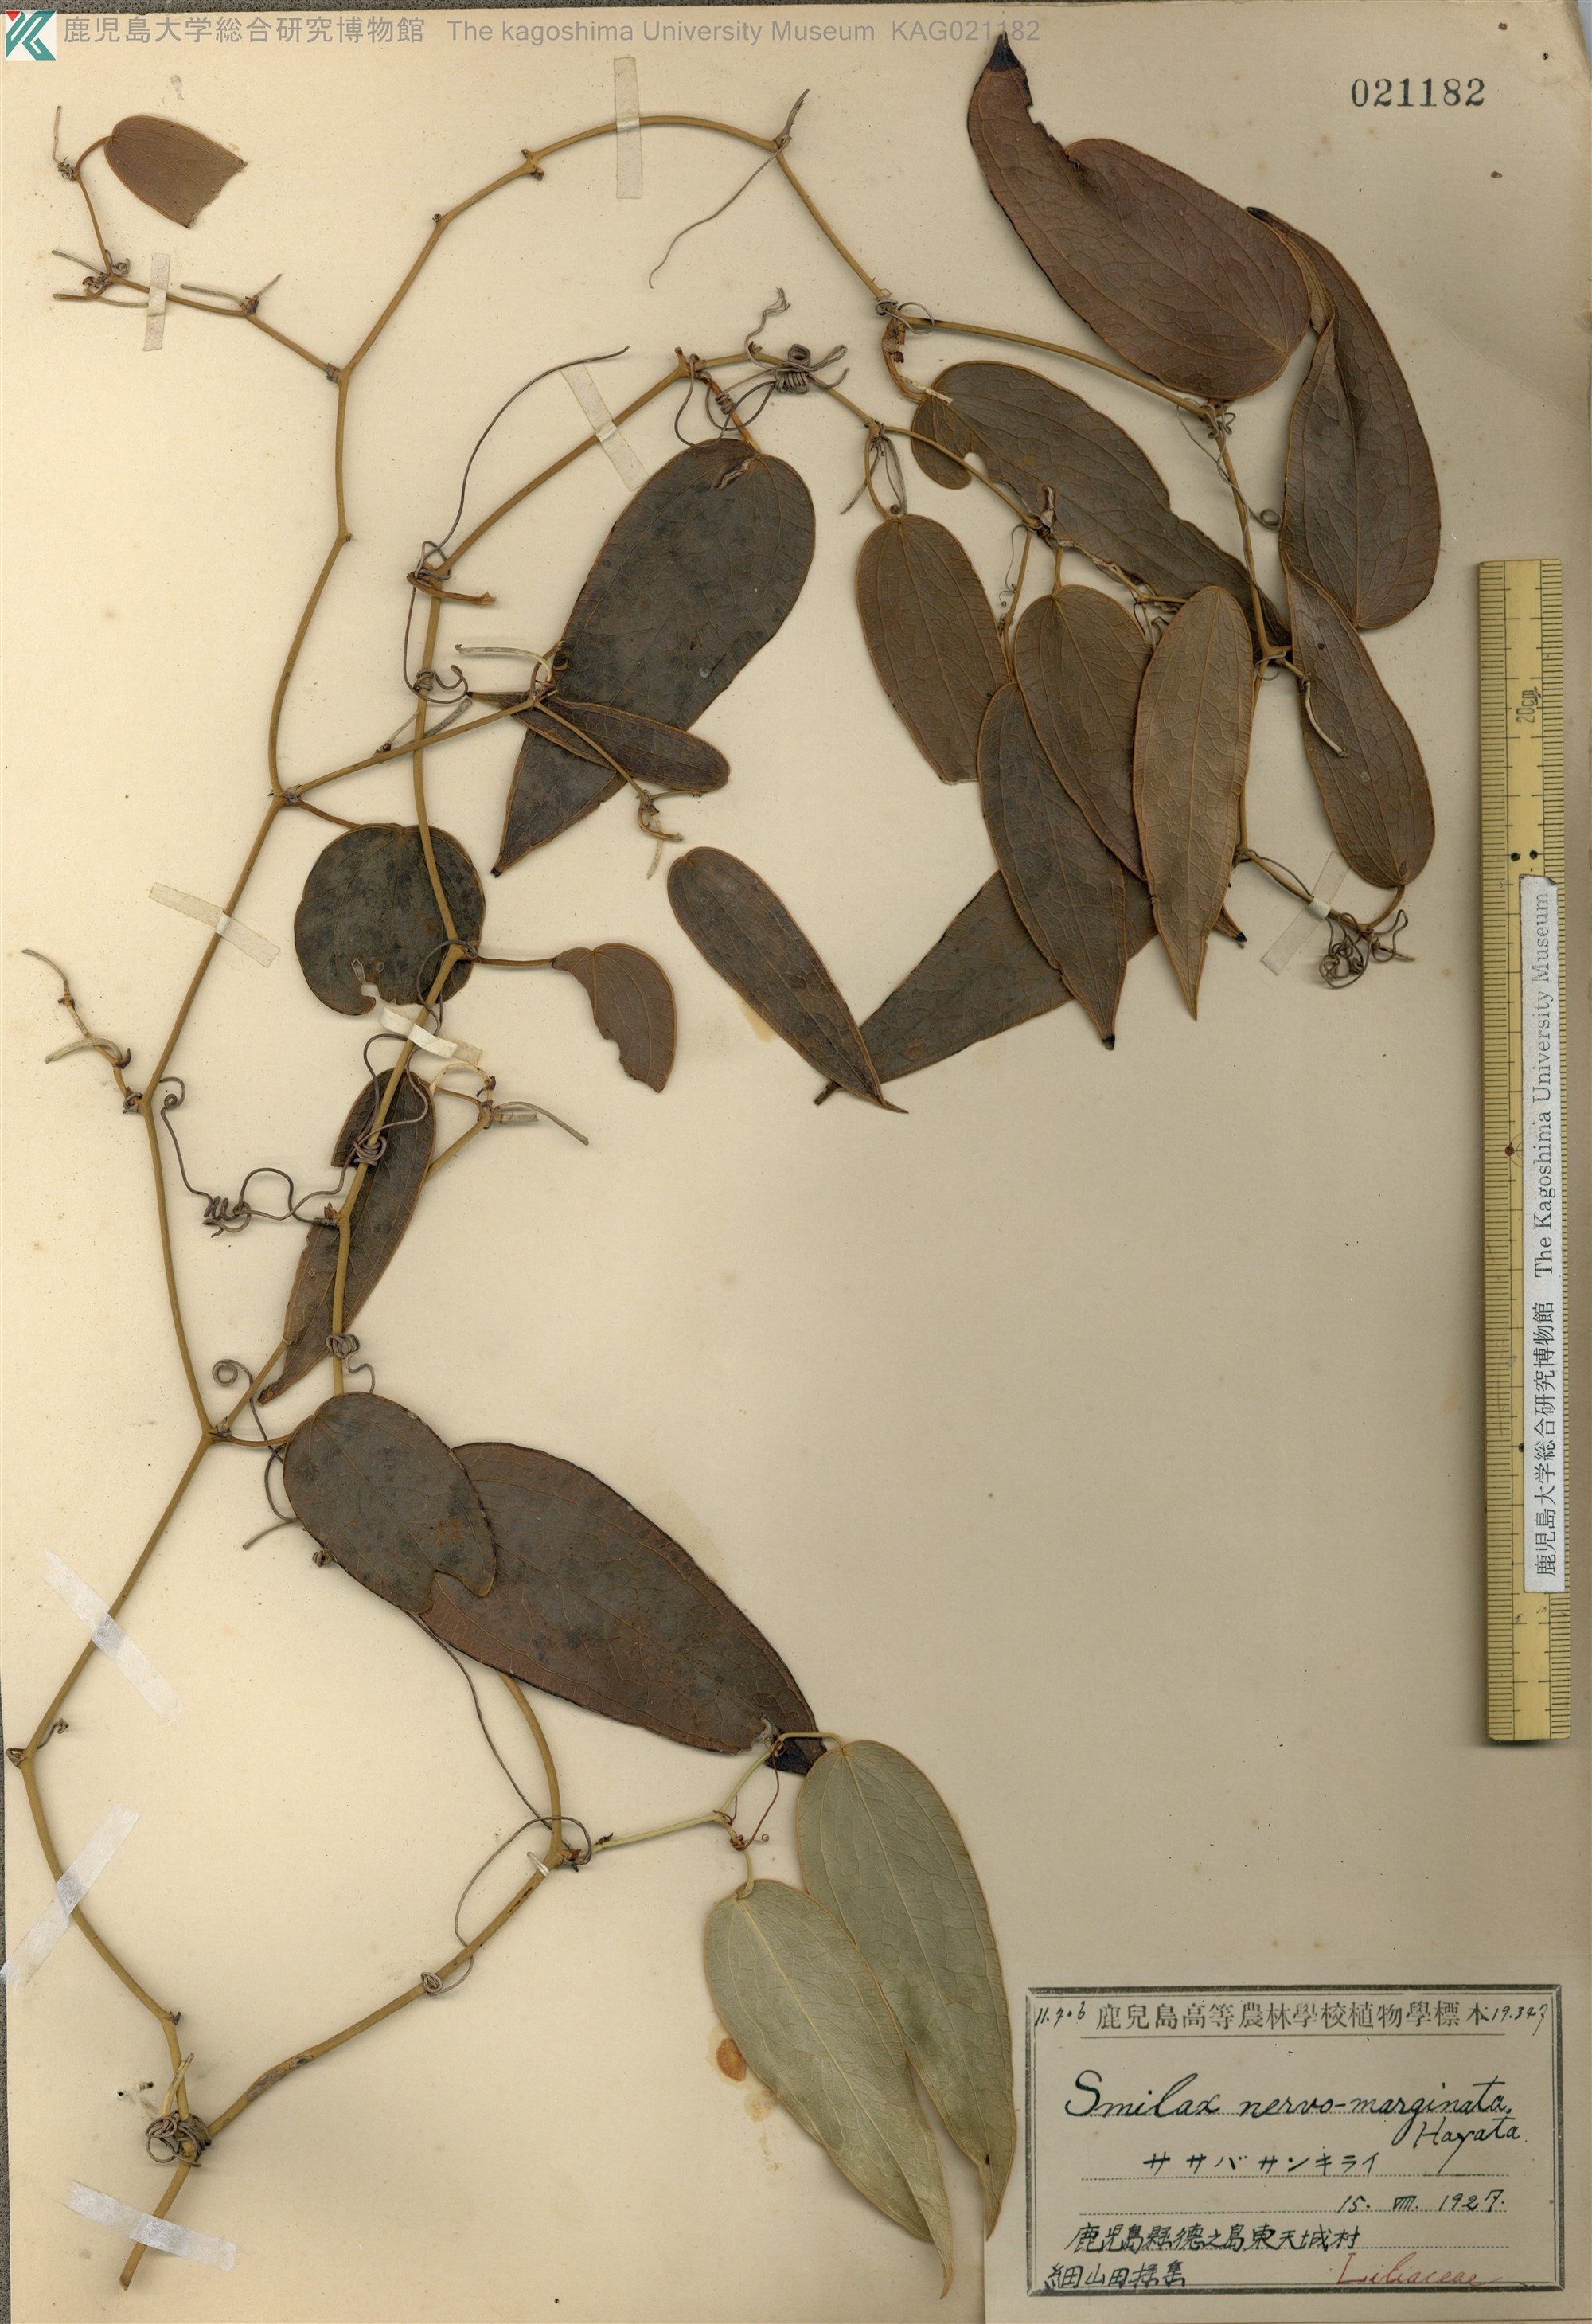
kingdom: Plantae
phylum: Tracheophyta
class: Liliopsida
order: Liliales
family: Smilacaceae
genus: Smilax
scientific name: Smilax nervomarginata
